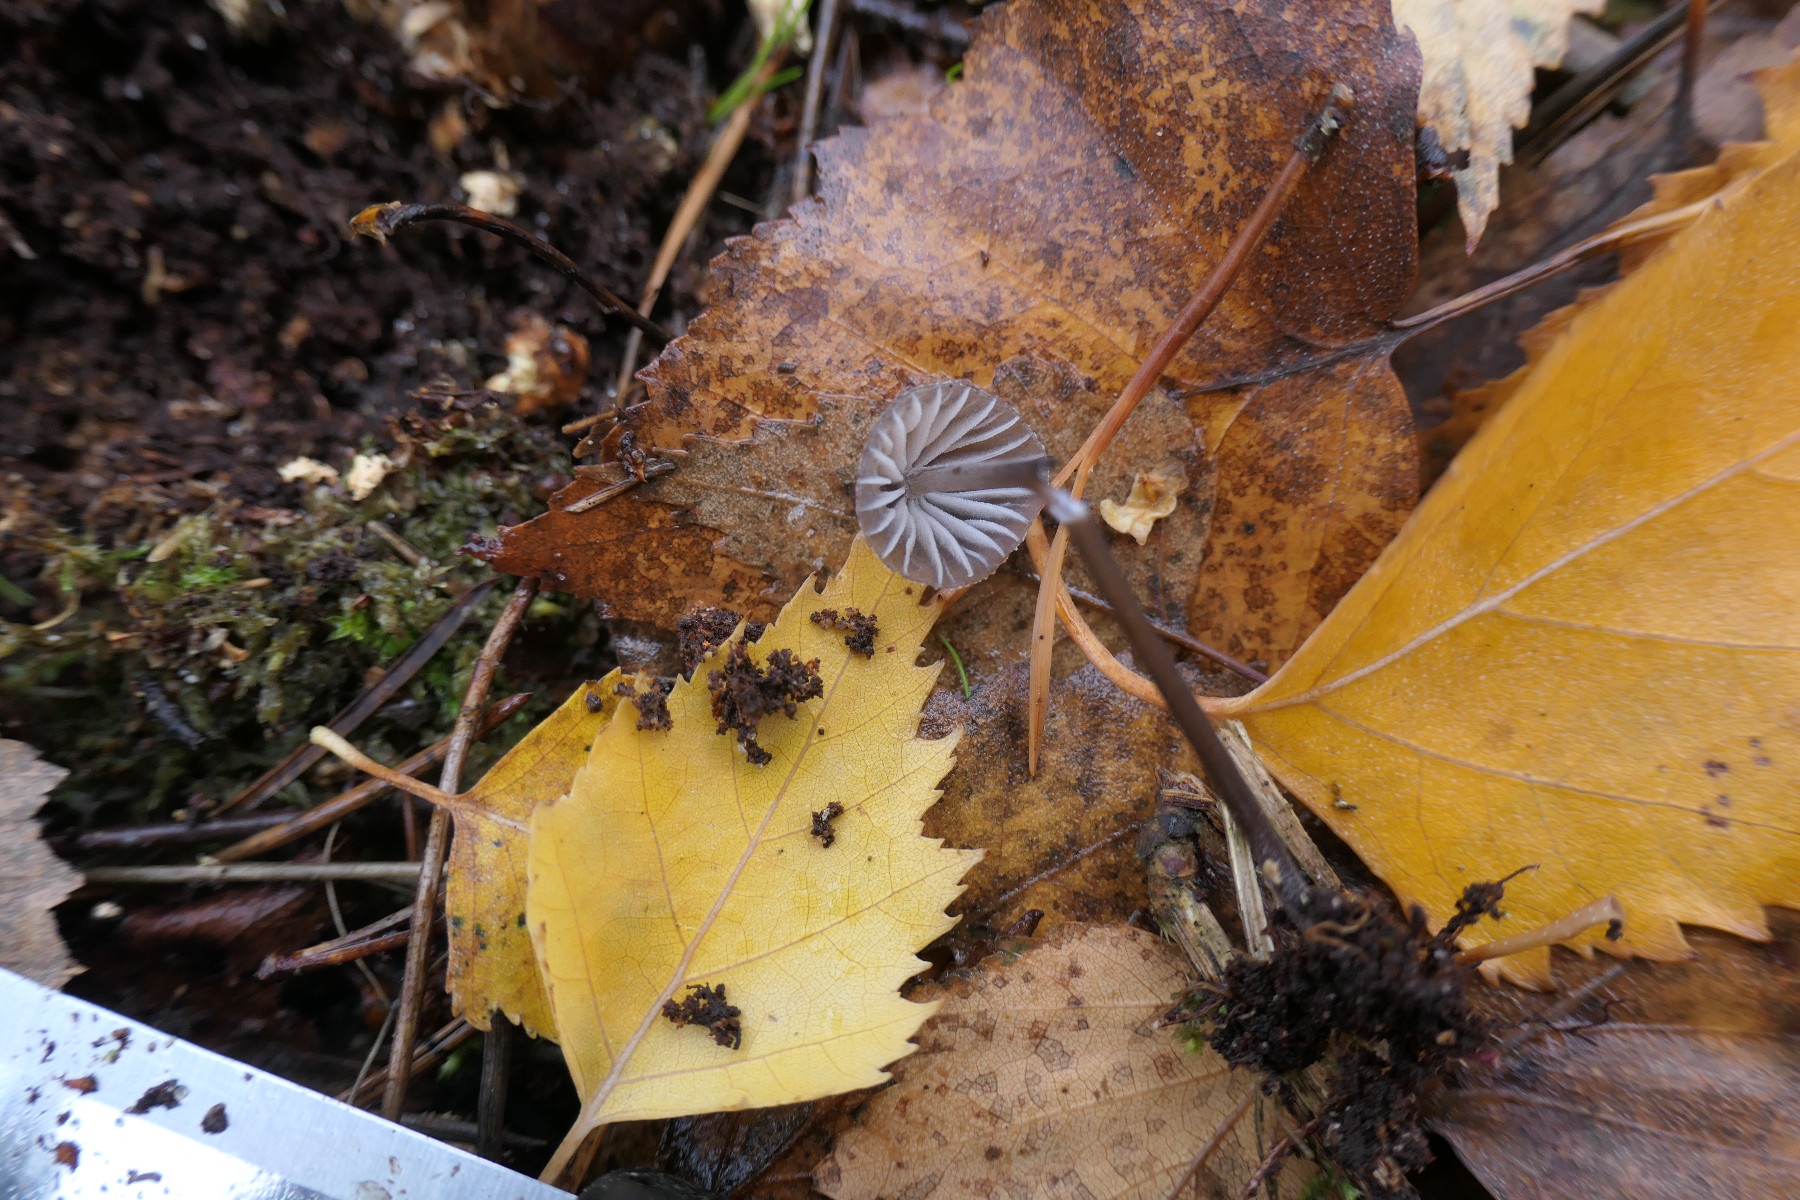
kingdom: Fungi
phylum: Basidiomycota
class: Agaricomycetes
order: Agaricales
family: Mycenaceae
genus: Mycena
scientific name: Mycena galopus
